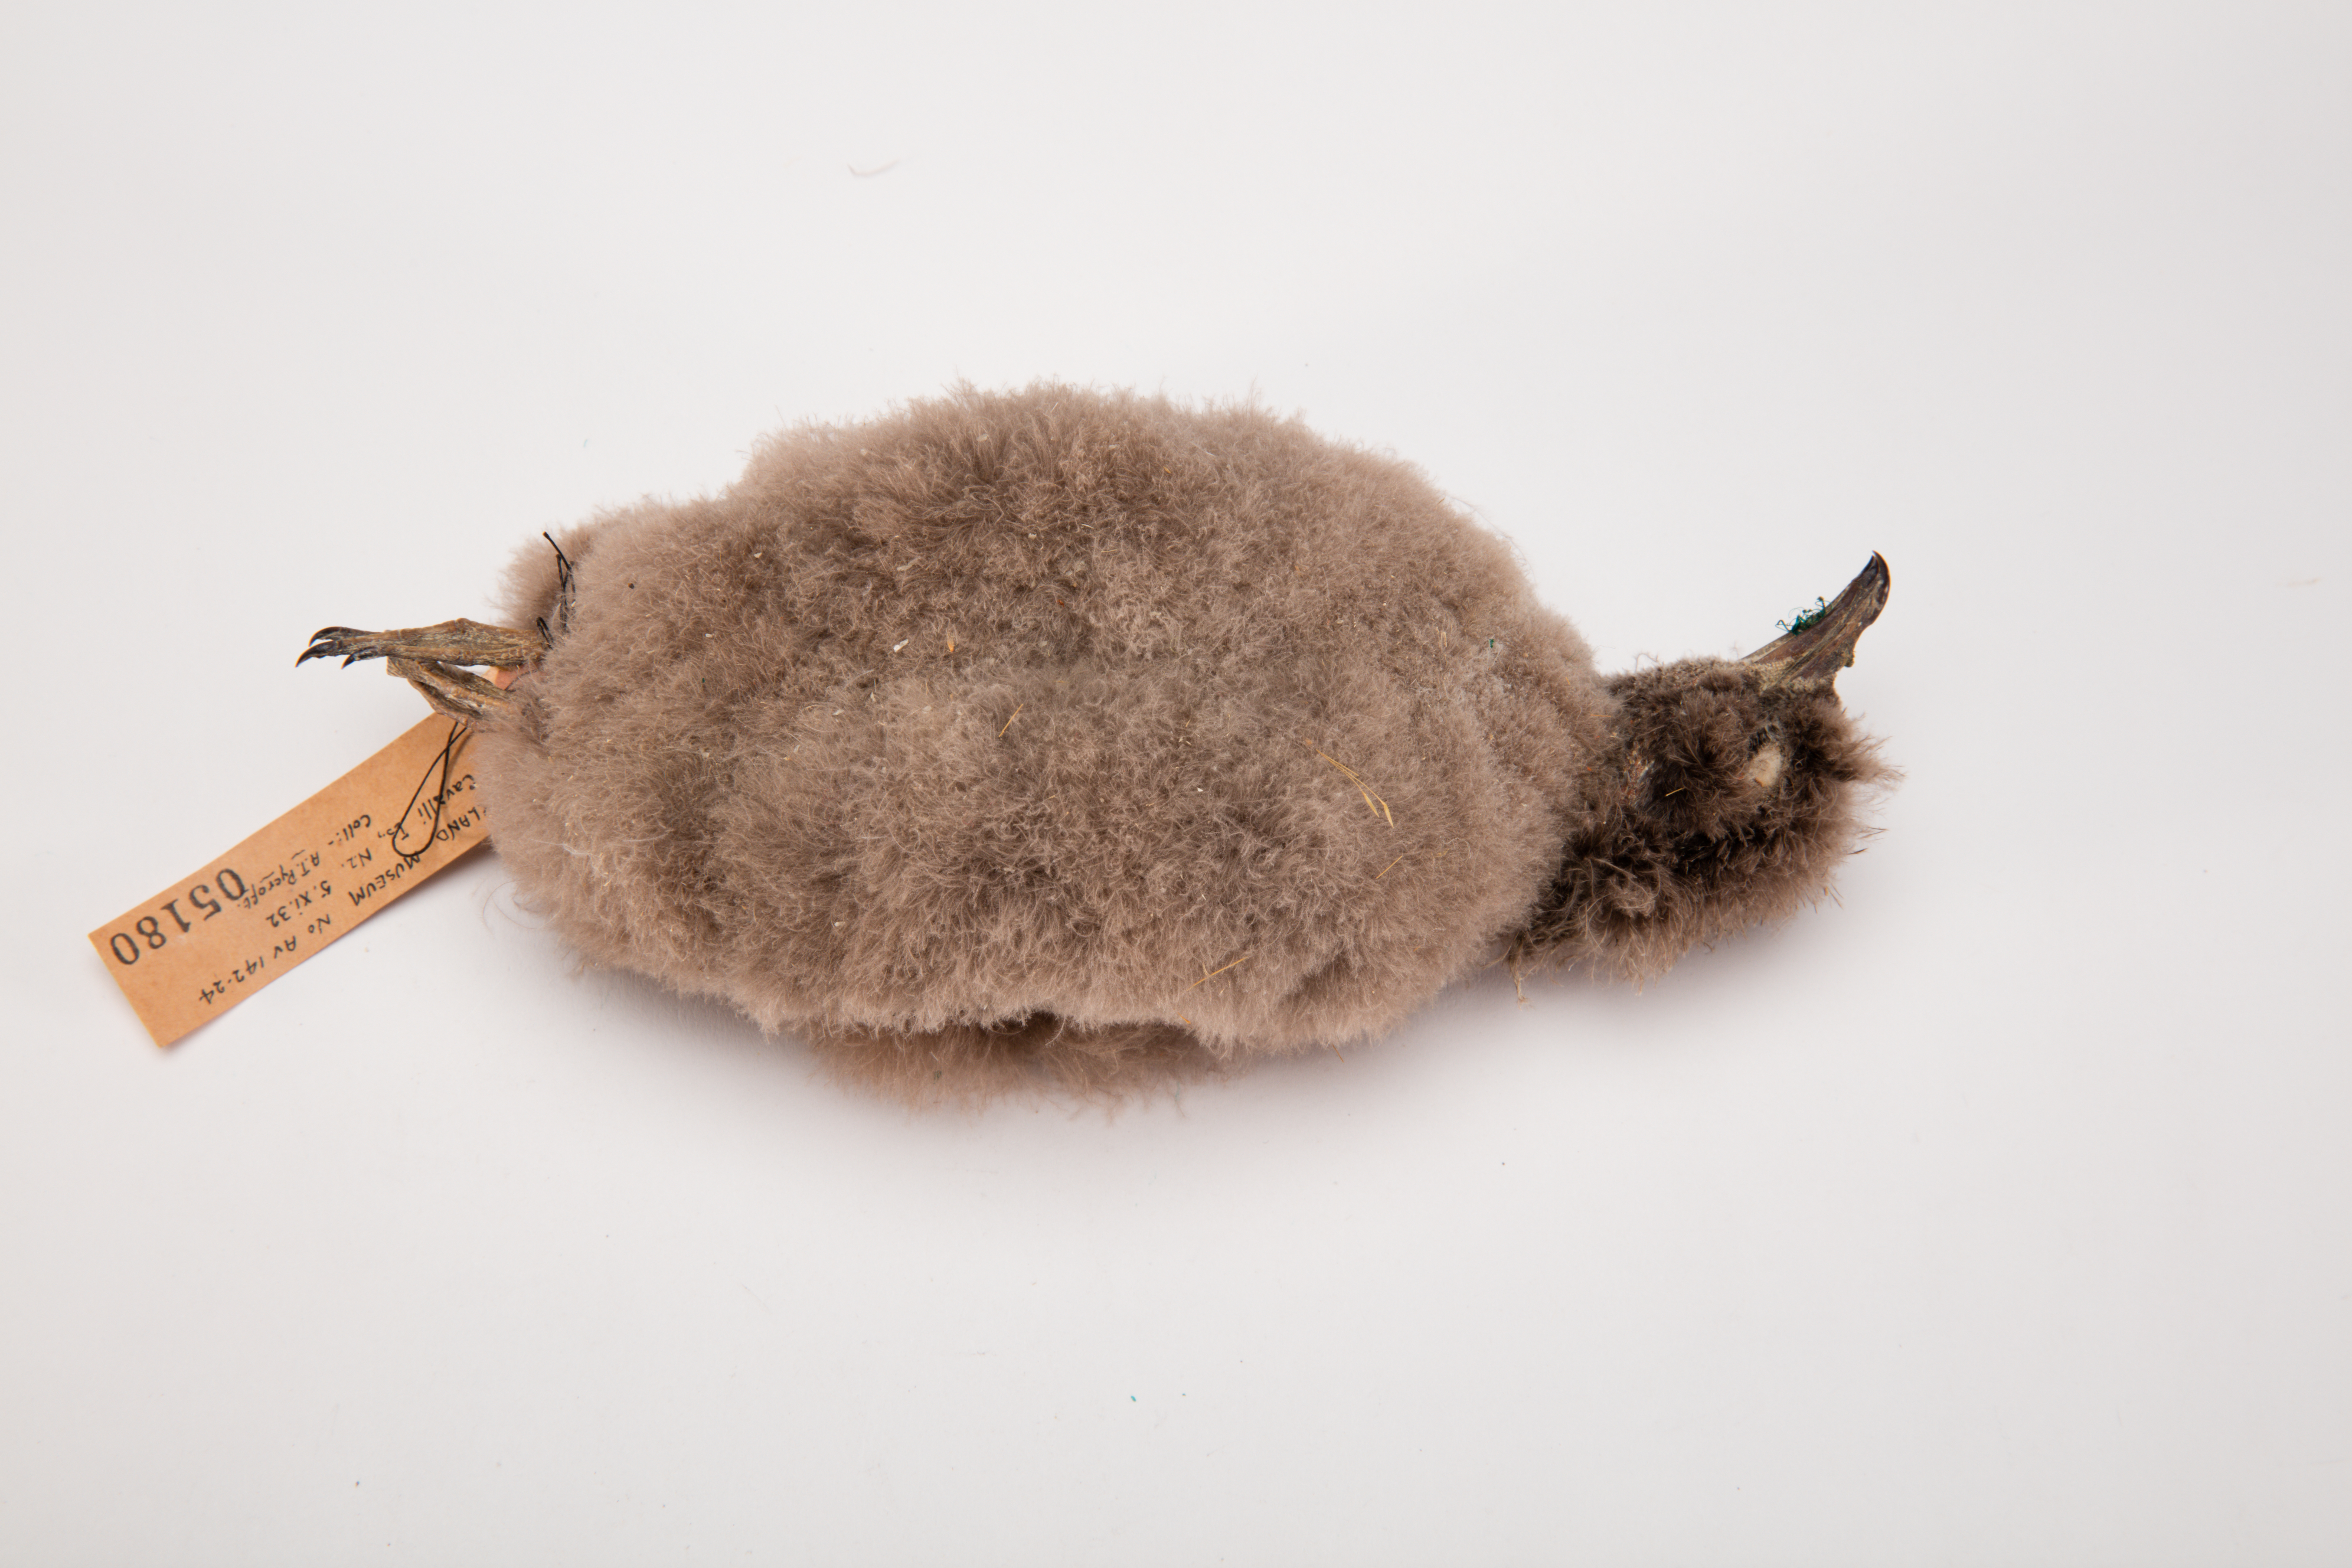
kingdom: Animalia
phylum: Chordata
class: Aves
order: Procellariiformes
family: Pelecanoididae
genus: Pelecanoides
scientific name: Pelecanoides urinatrix
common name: Common diving-petrel
